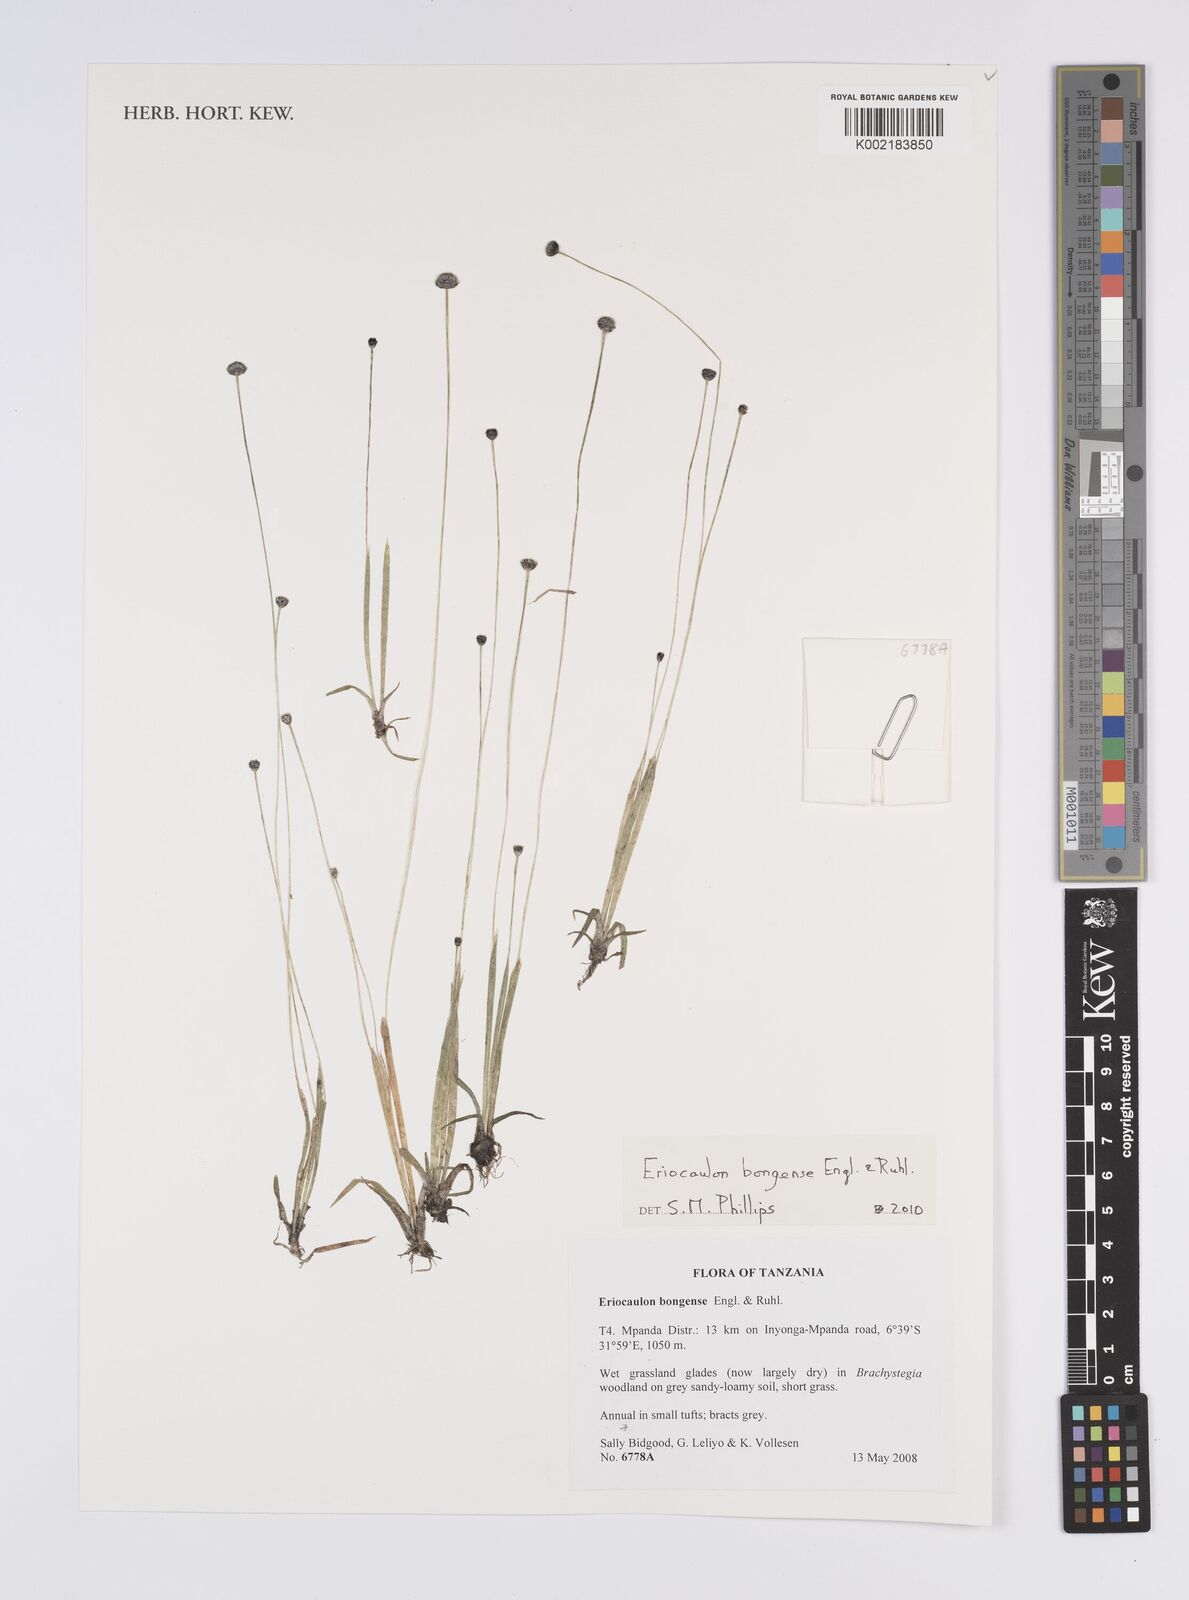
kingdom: Plantae
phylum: Tracheophyta
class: Liliopsida
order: Poales
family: Eriocaulaceae
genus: Eriocaulon
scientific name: Eriocaulon bongense
